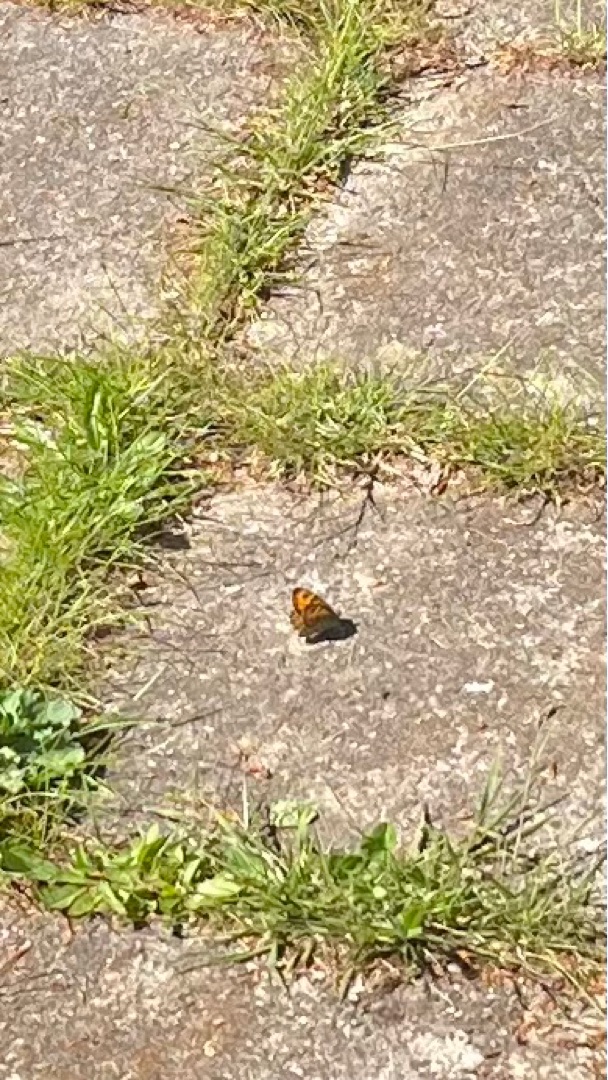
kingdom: Animalia
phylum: Arthropoda
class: Insecta
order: Lepidoptera
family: Nymphalidae
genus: Pararge
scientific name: Pararge Lasiommata megera
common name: Vejrandøje
